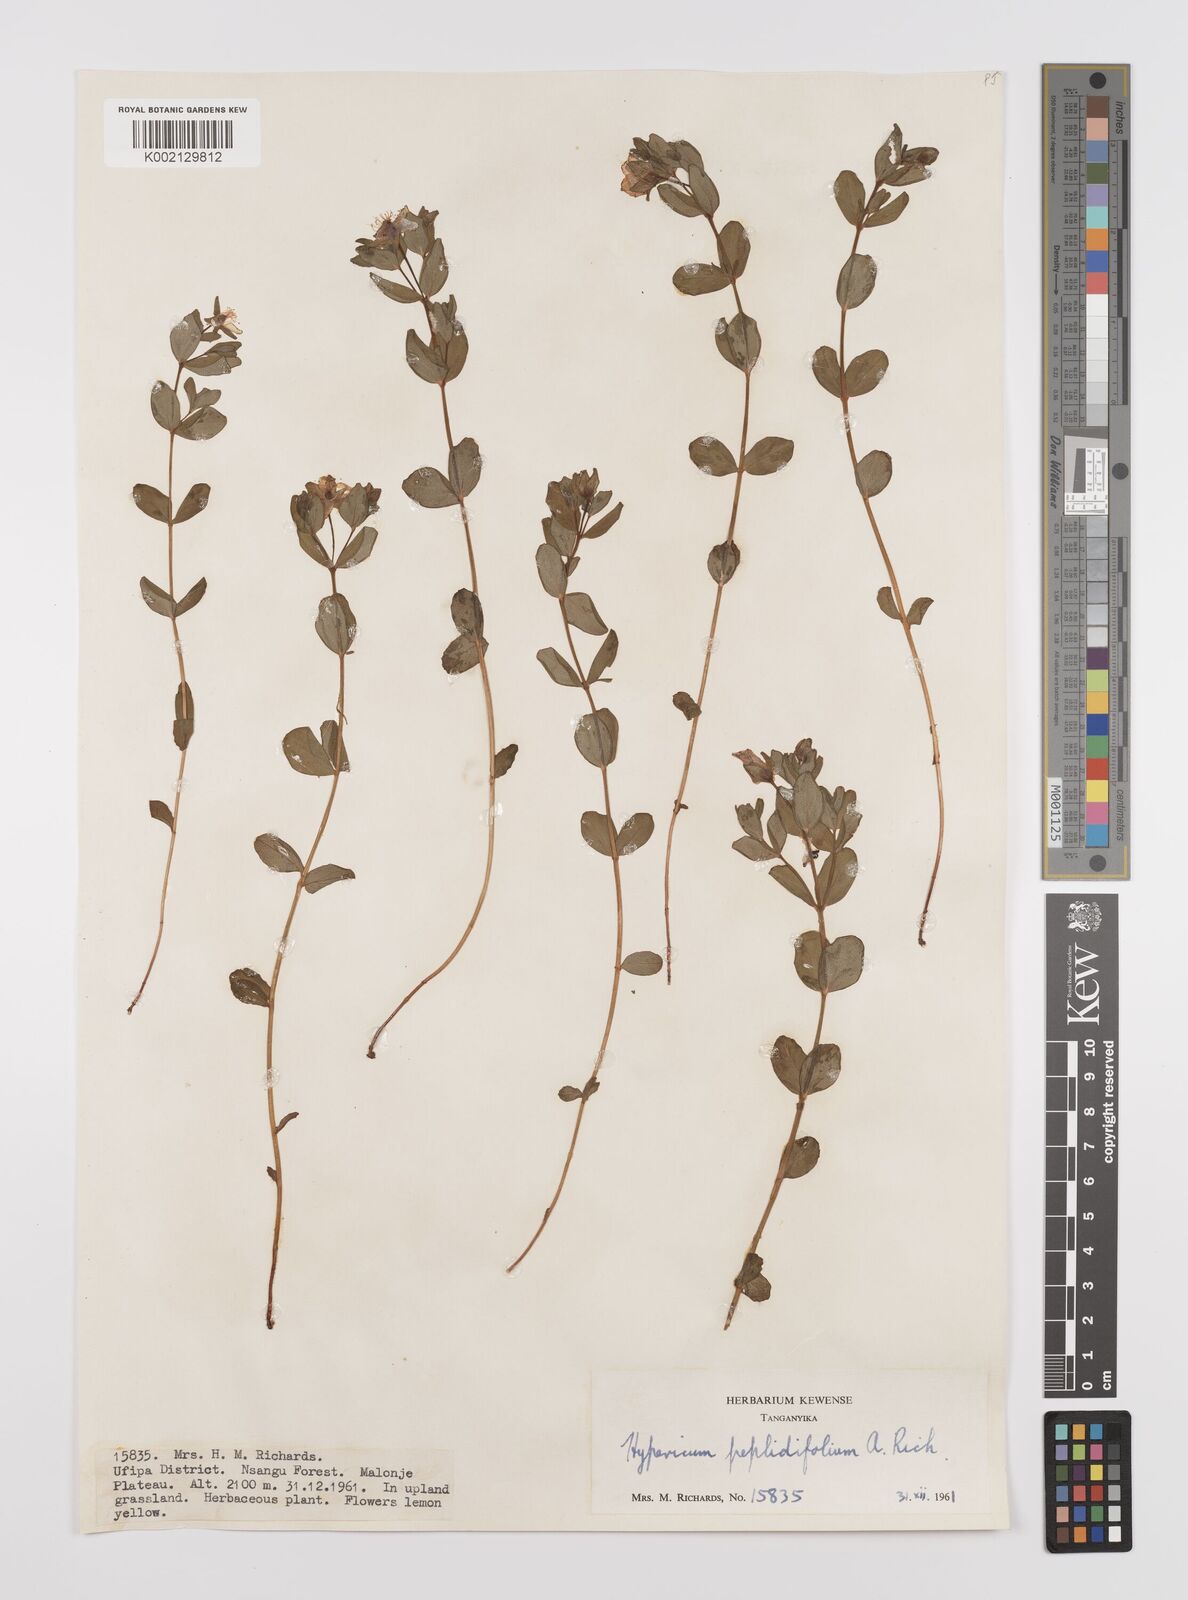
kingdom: Plantae
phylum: Tracheophyta
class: Magnoliopsida
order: Malpighiales
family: Hypericaceae
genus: Hypericum
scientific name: Hypericum peplidifolium
